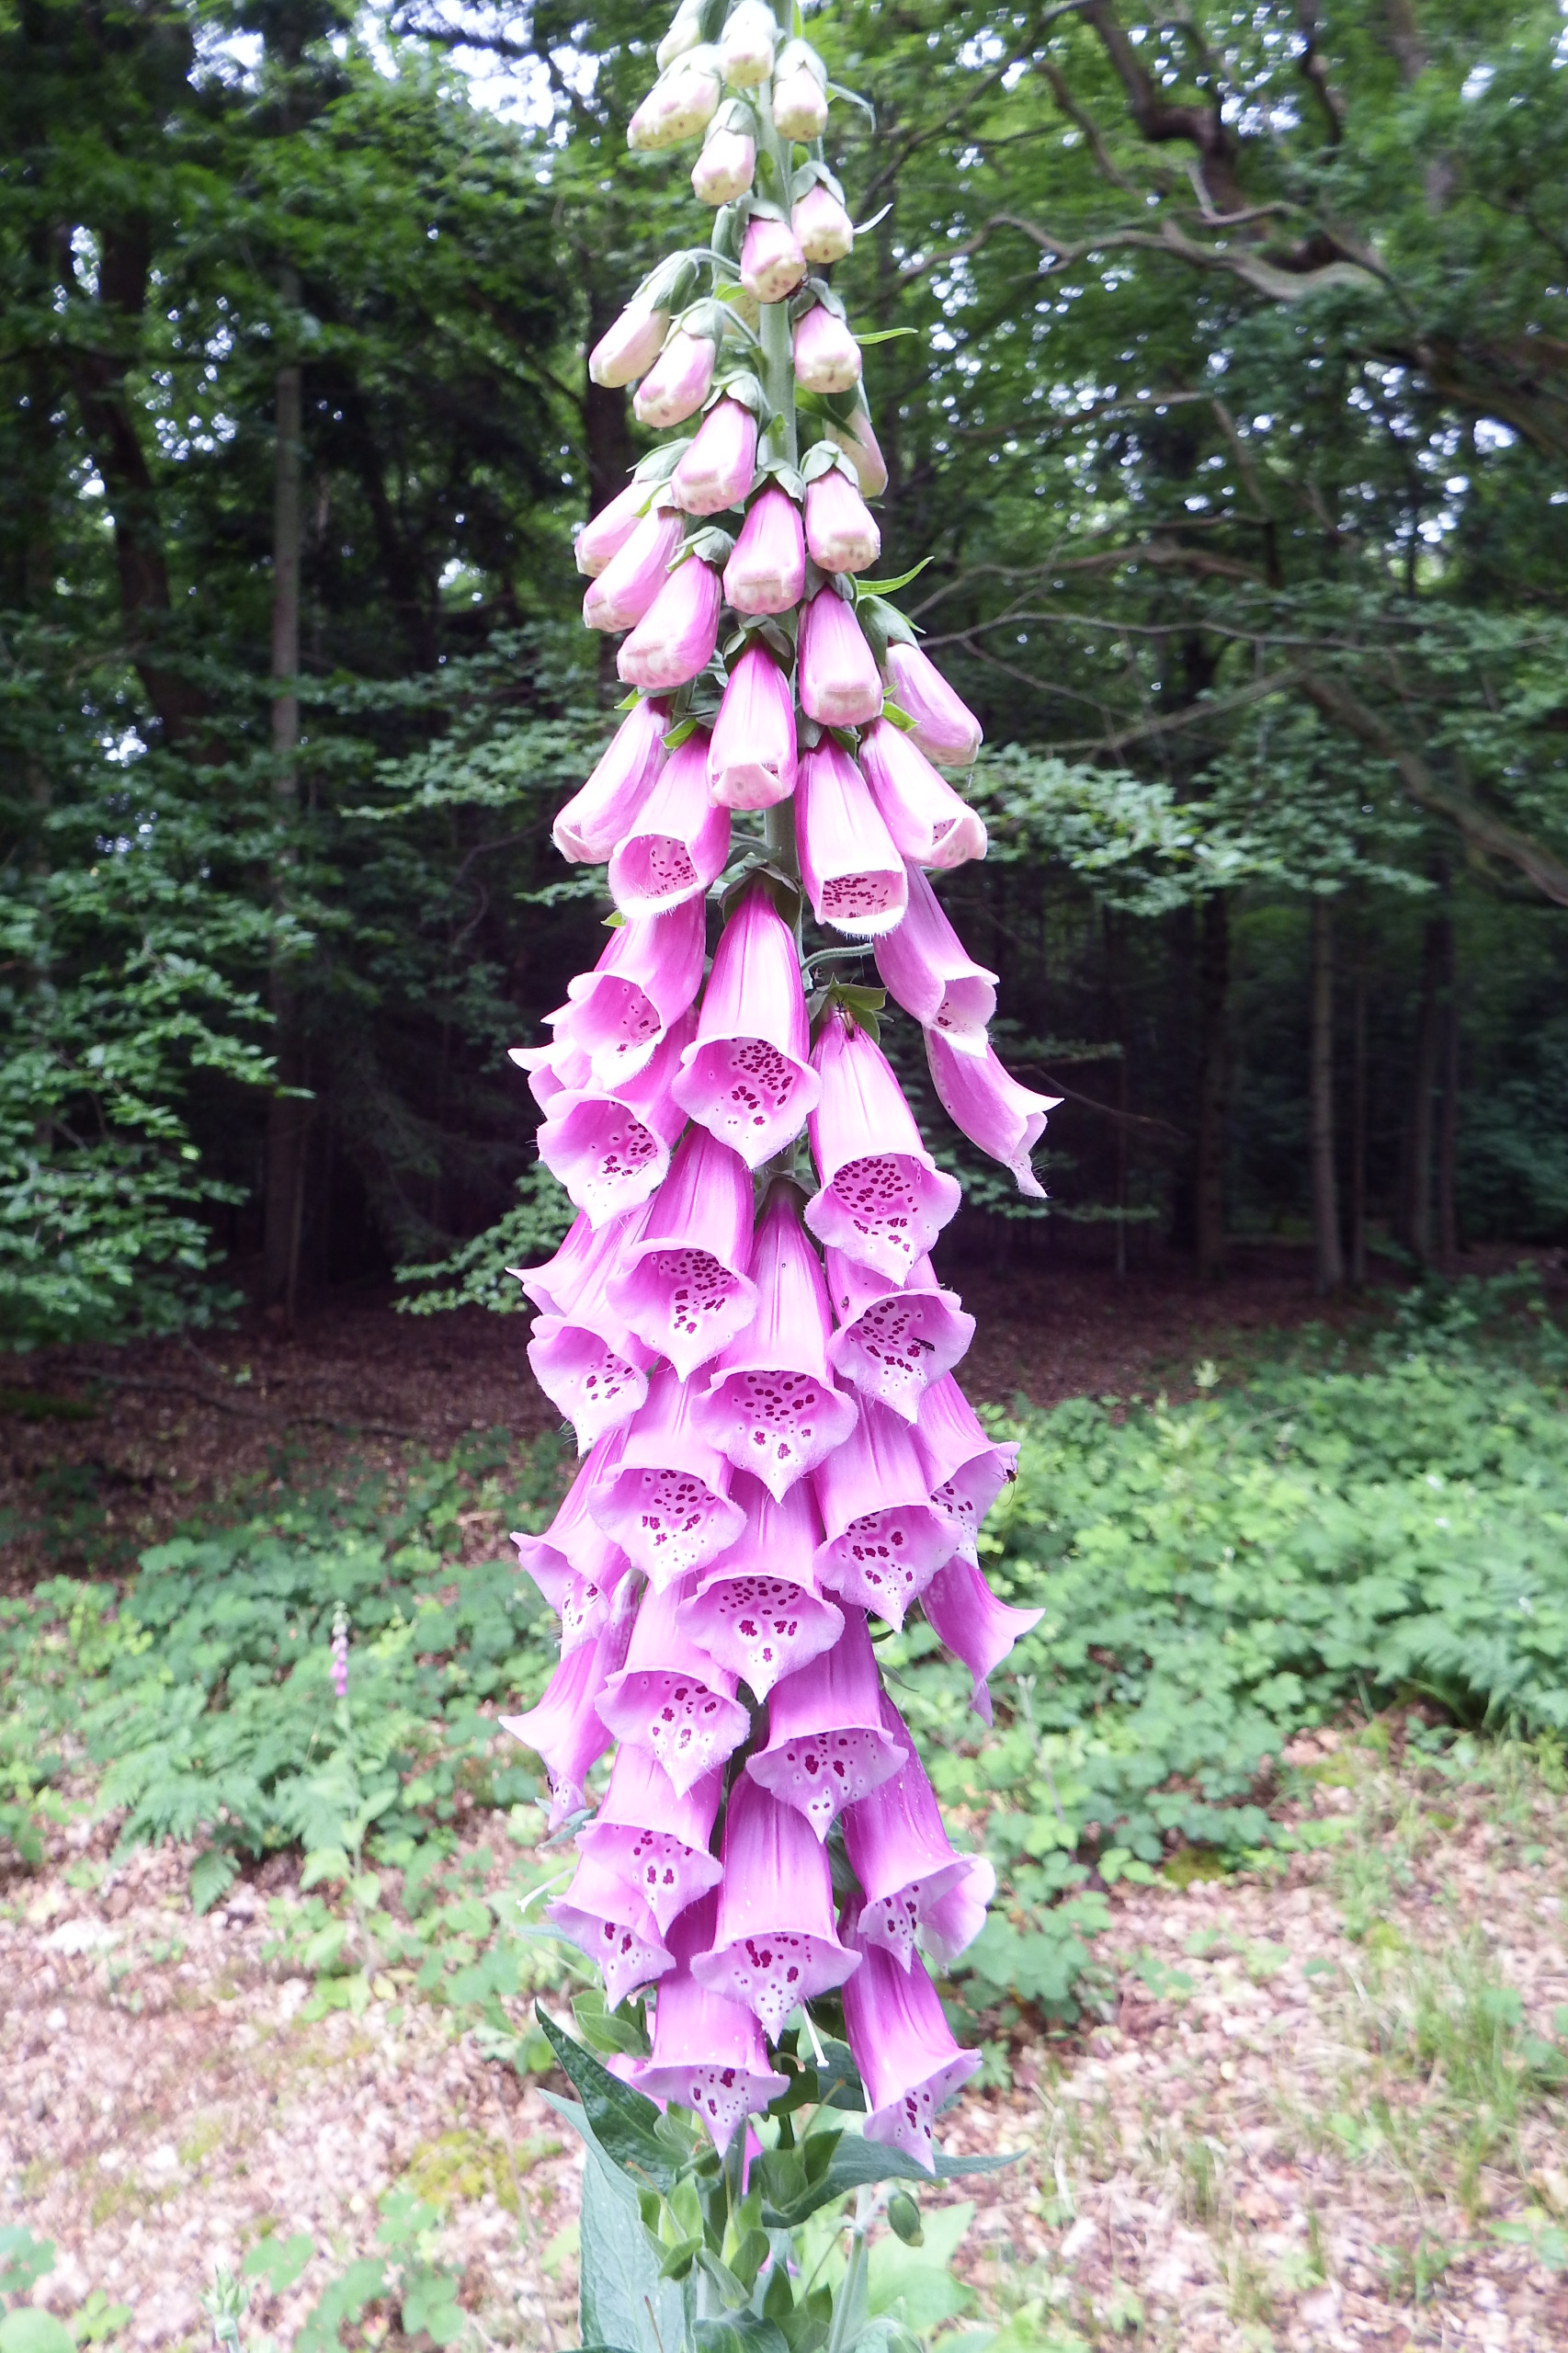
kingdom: Plantae
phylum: Tracheophyta
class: Magnoliopsida
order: Lamiales
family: Plantaginaceae
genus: Digitalis
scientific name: Digitalis purpurea
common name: Almindelig fingerbøl
